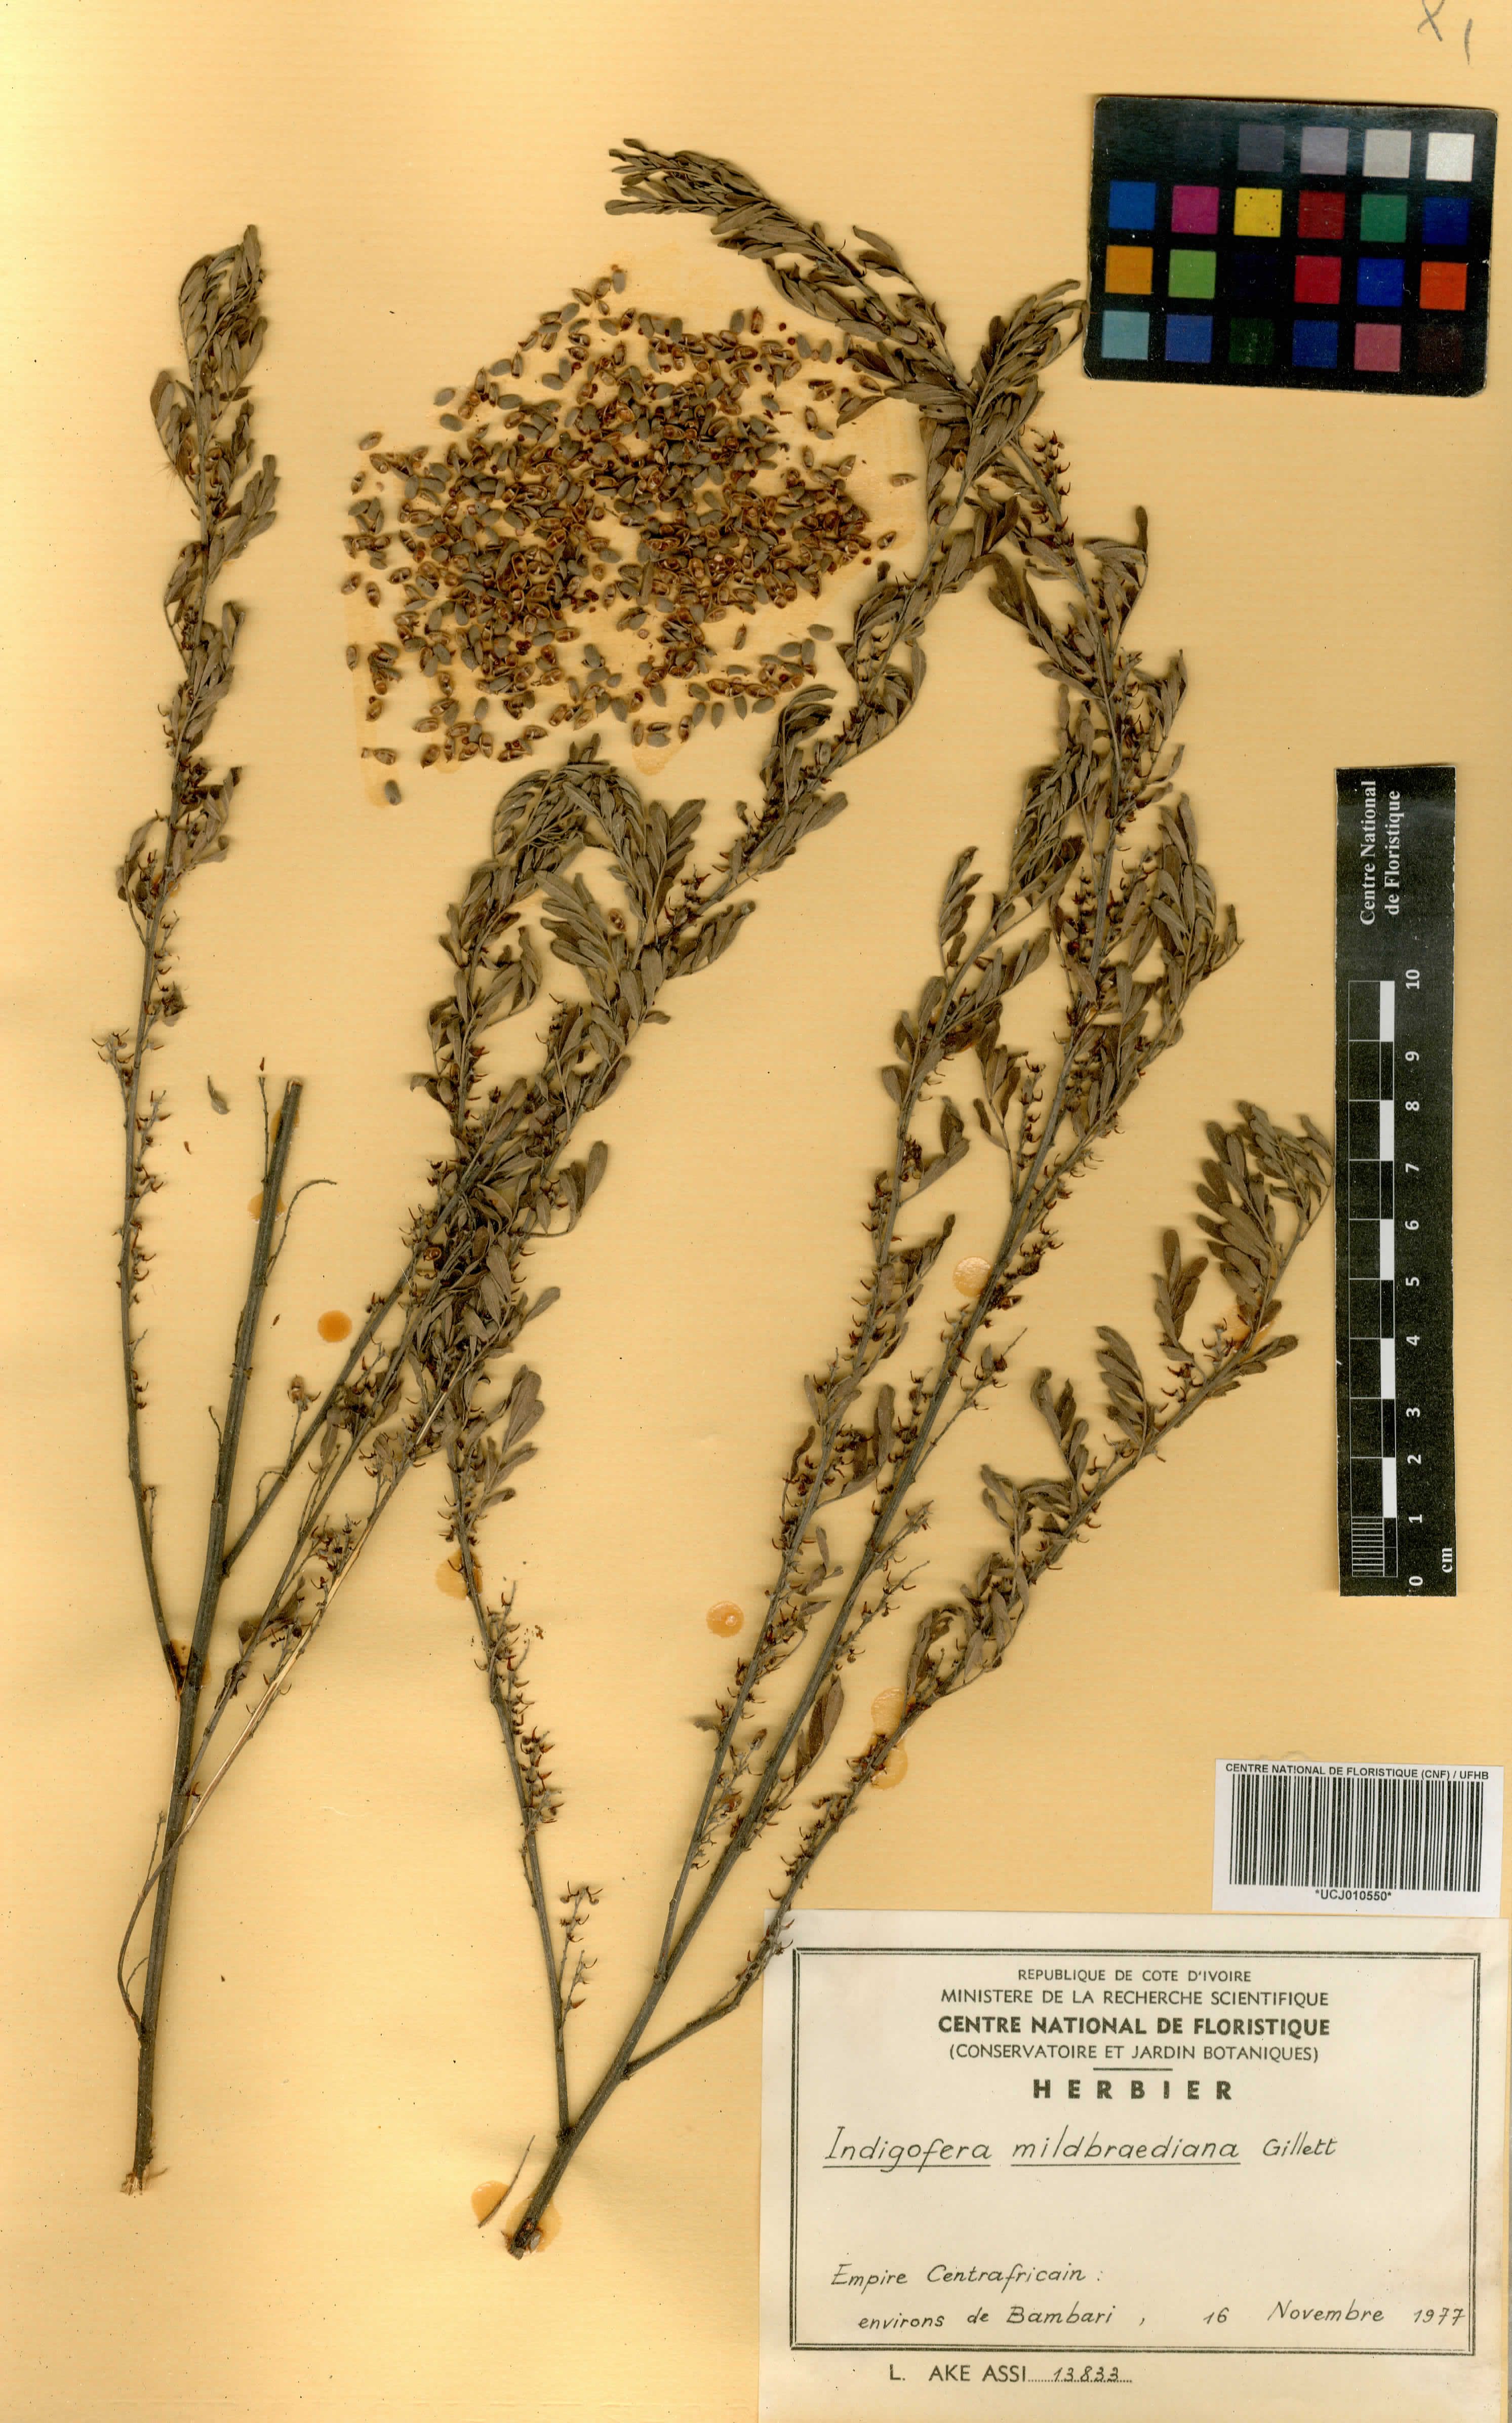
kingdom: Plantae
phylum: Tracheophyta
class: Magnoliopsida
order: Fabales
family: Fabaceae
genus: Indigofera
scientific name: Indigofera mildbraediana
